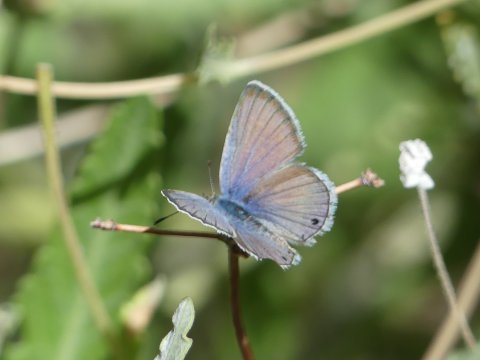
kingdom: Animalia
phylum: Arthropoda
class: Insecta
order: Lepidoptera
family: Lycaenidae
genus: Echinargus
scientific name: Echinargus isola
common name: Reakirt's Blue
